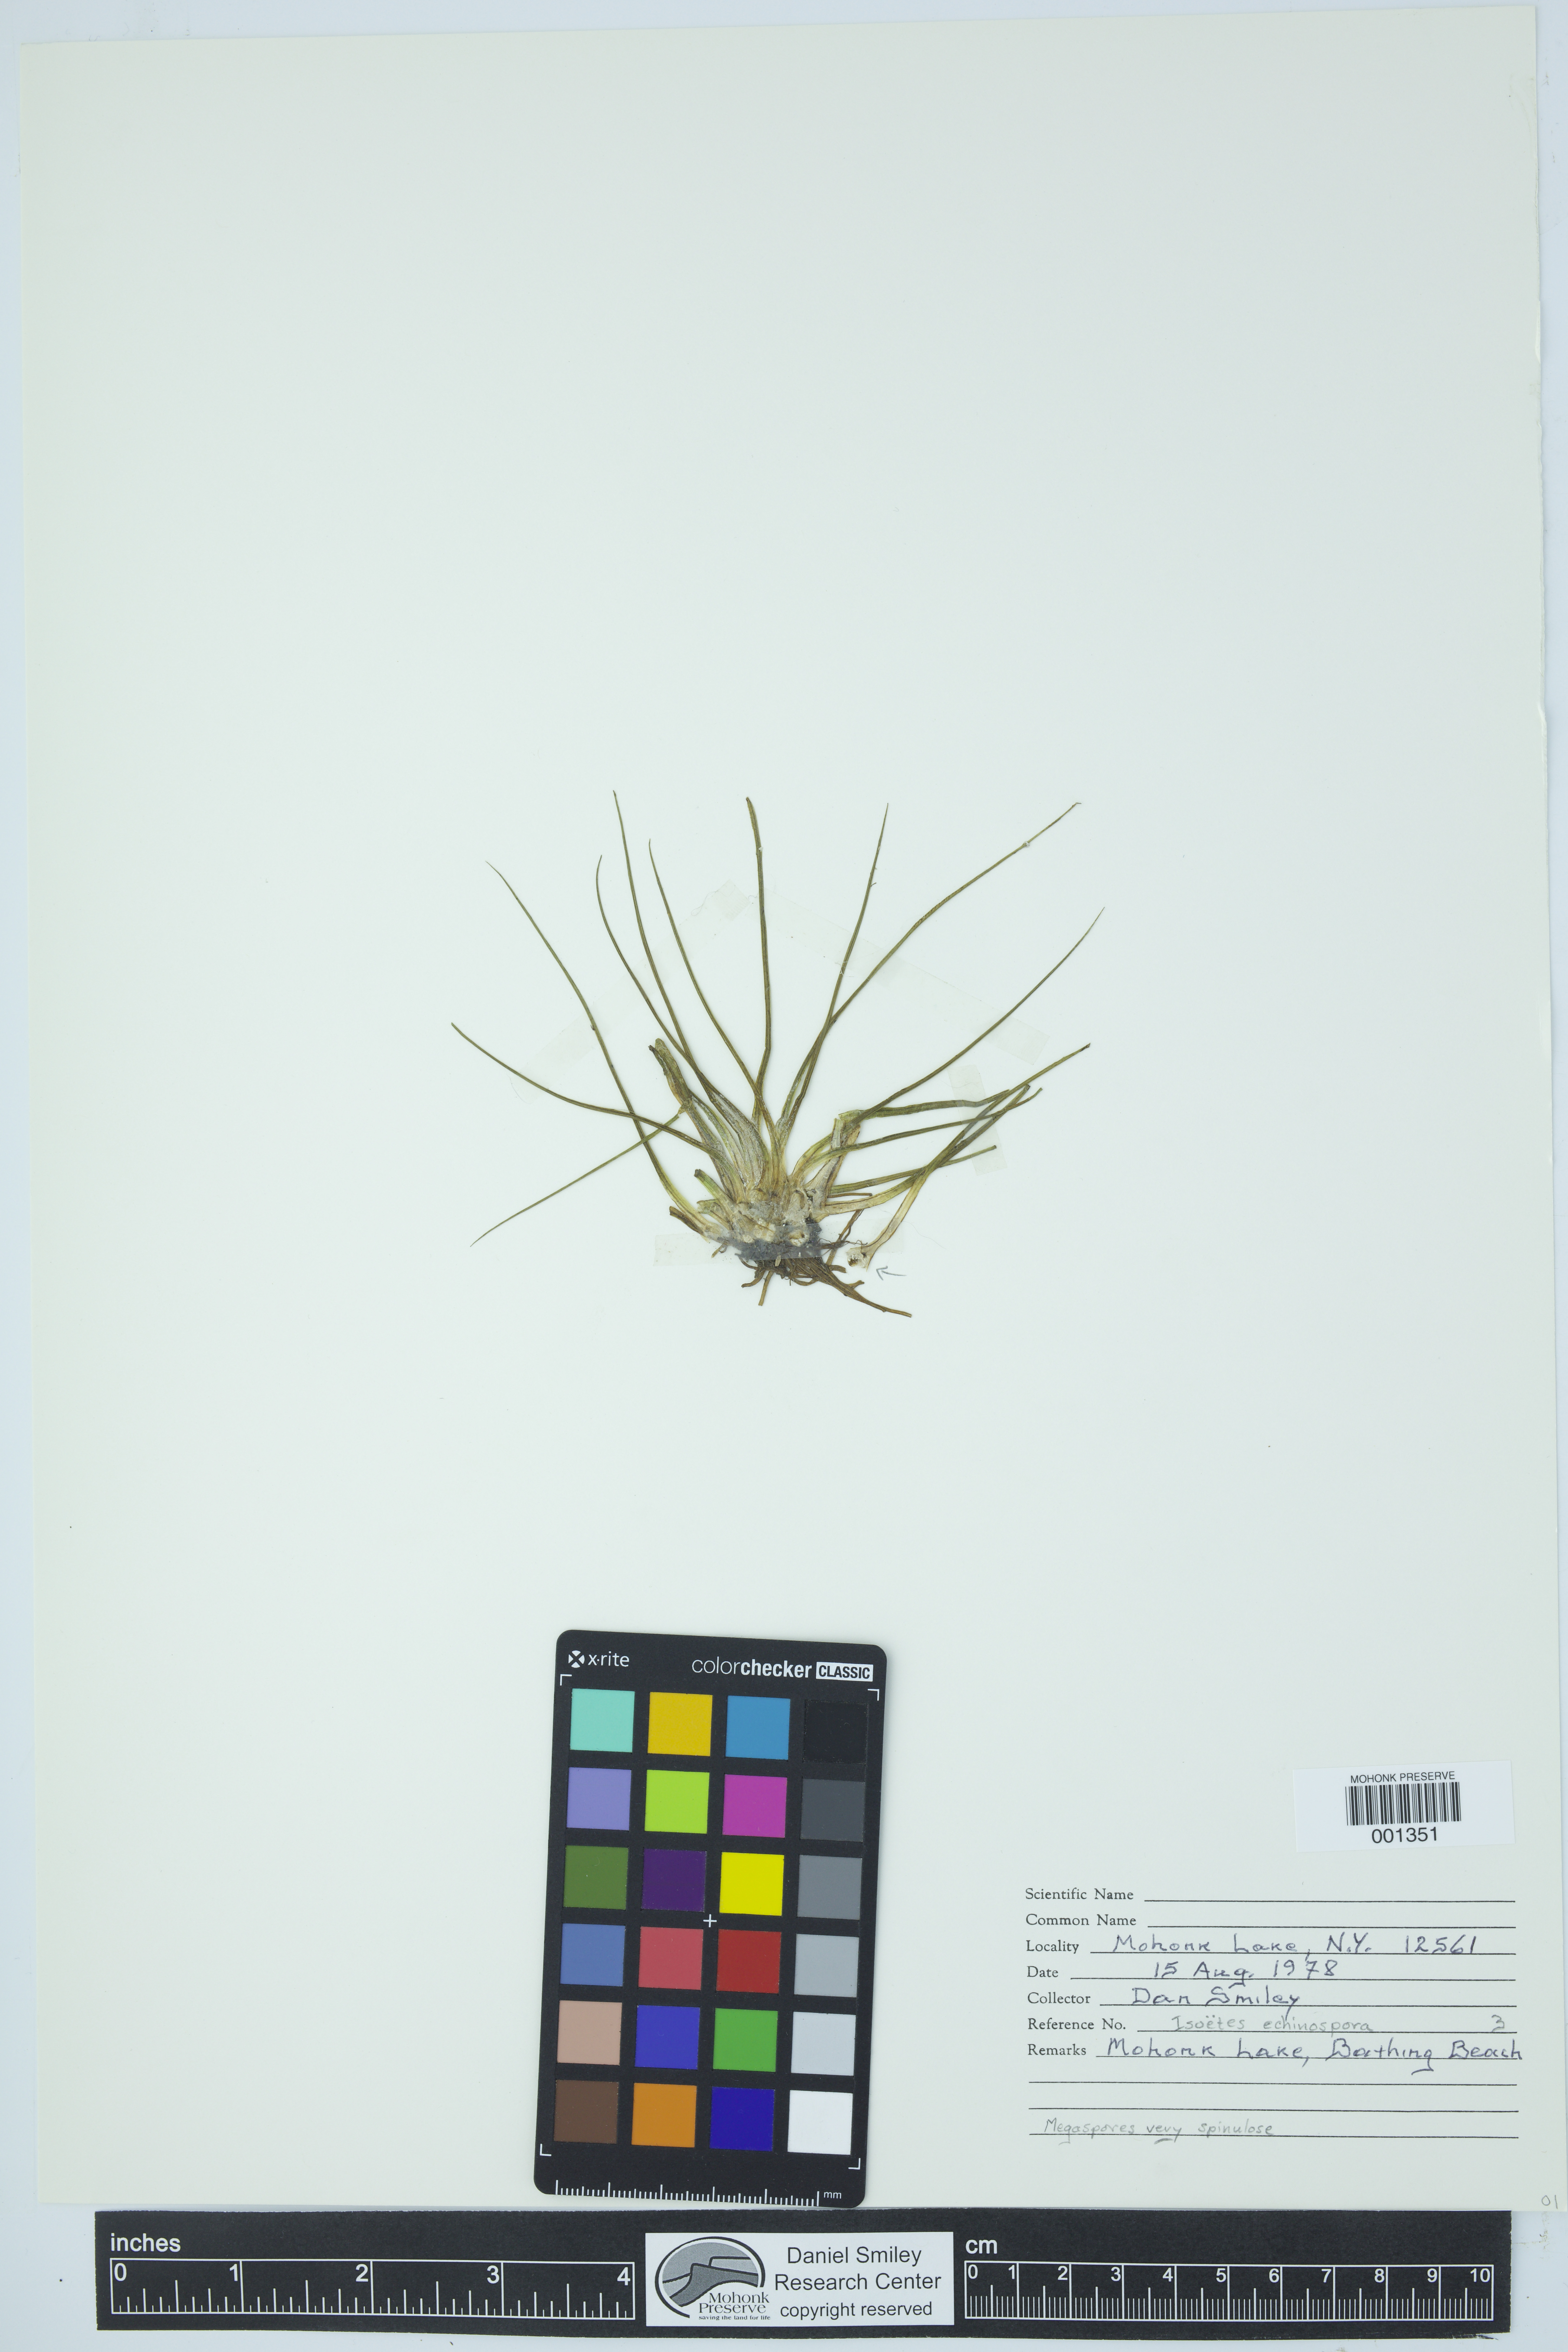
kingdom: Plantae
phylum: Tracheophyta
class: Lycopodiopsida
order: Isoetales
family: Isoetaceae
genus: Isoetes
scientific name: Isoetes echinospora
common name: Spring quillwort
